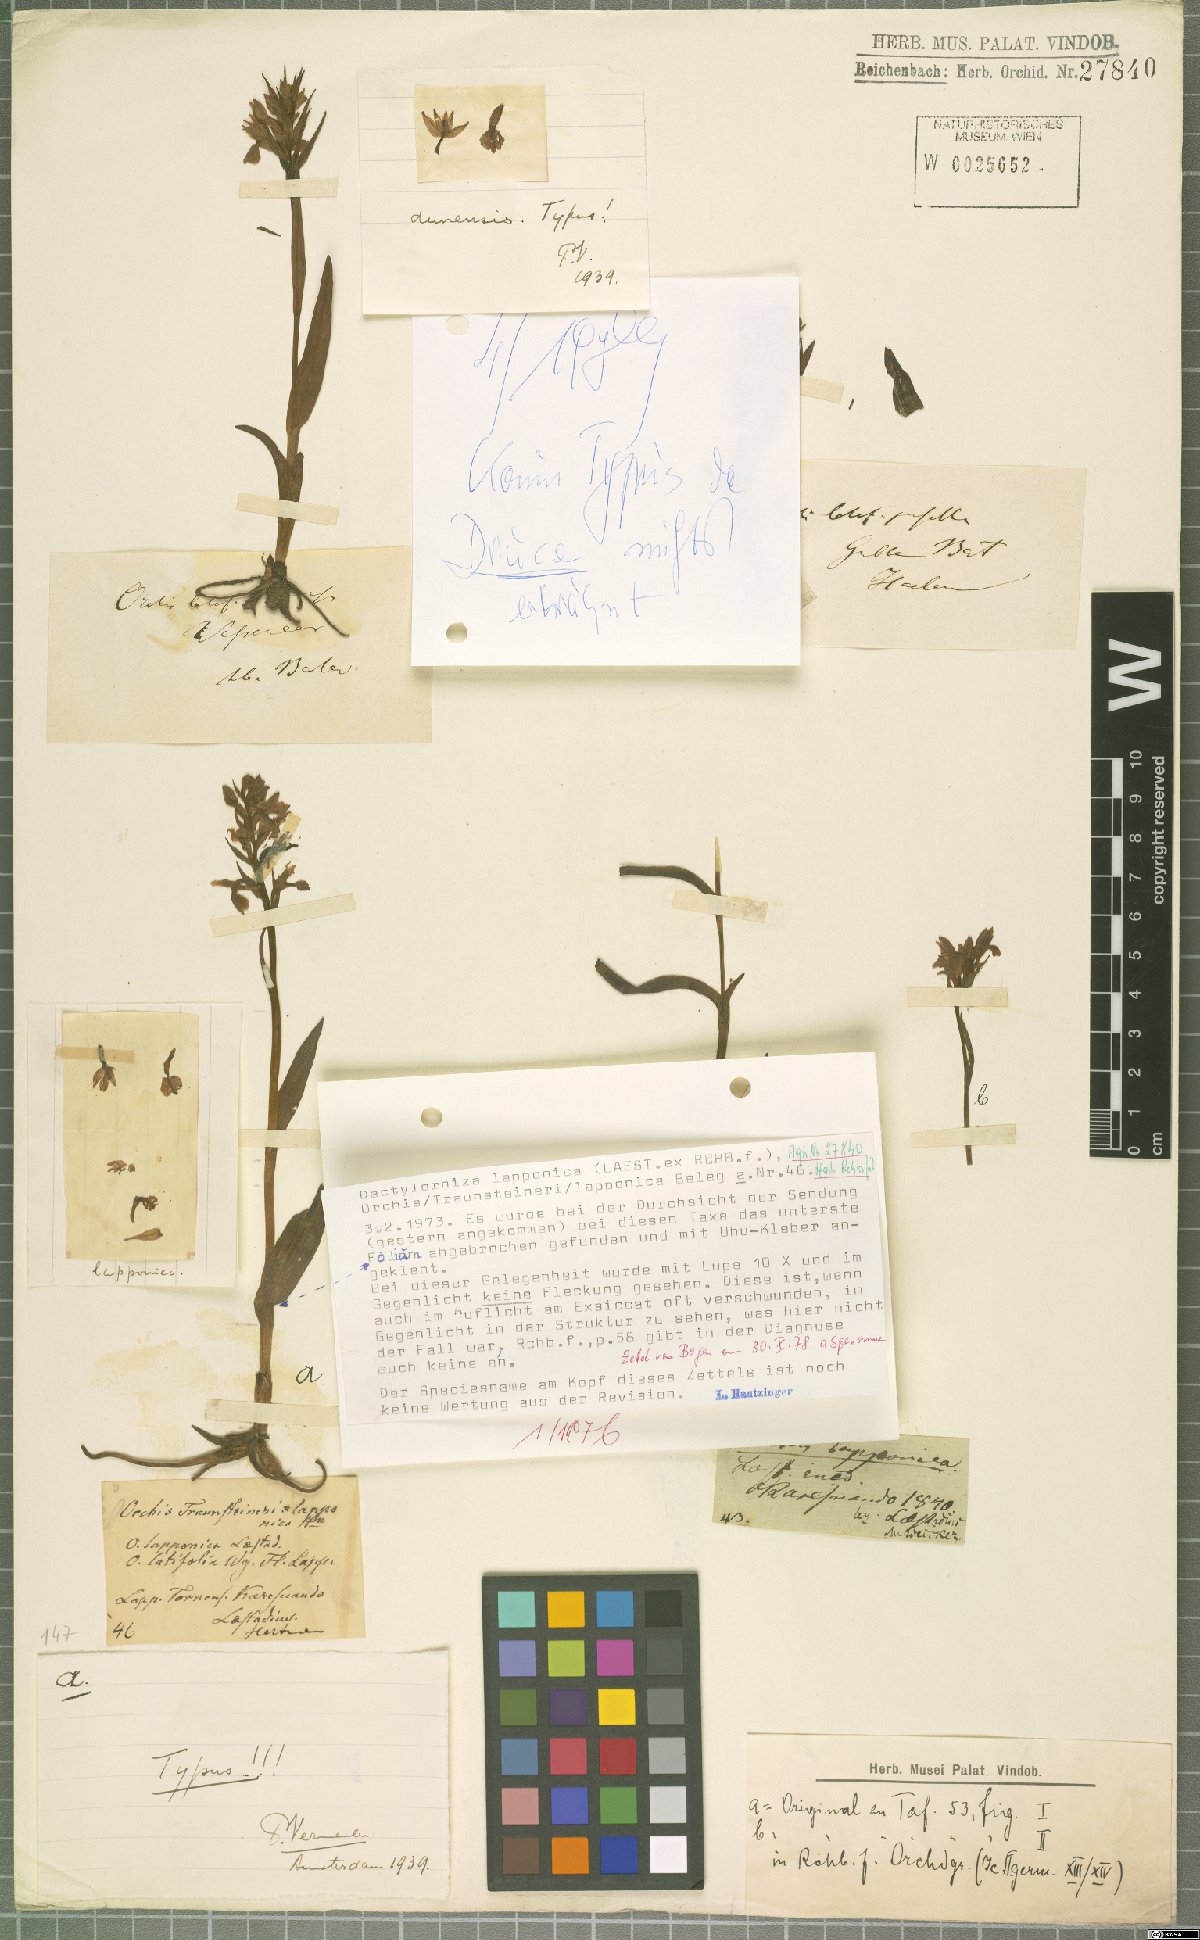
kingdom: Plantae
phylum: Tracheophyta
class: Liliopsida
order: Asparagales
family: Orchidaceae
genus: Dactylorhiza
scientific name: Dactylorhiza majalis
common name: Marsh orchid
